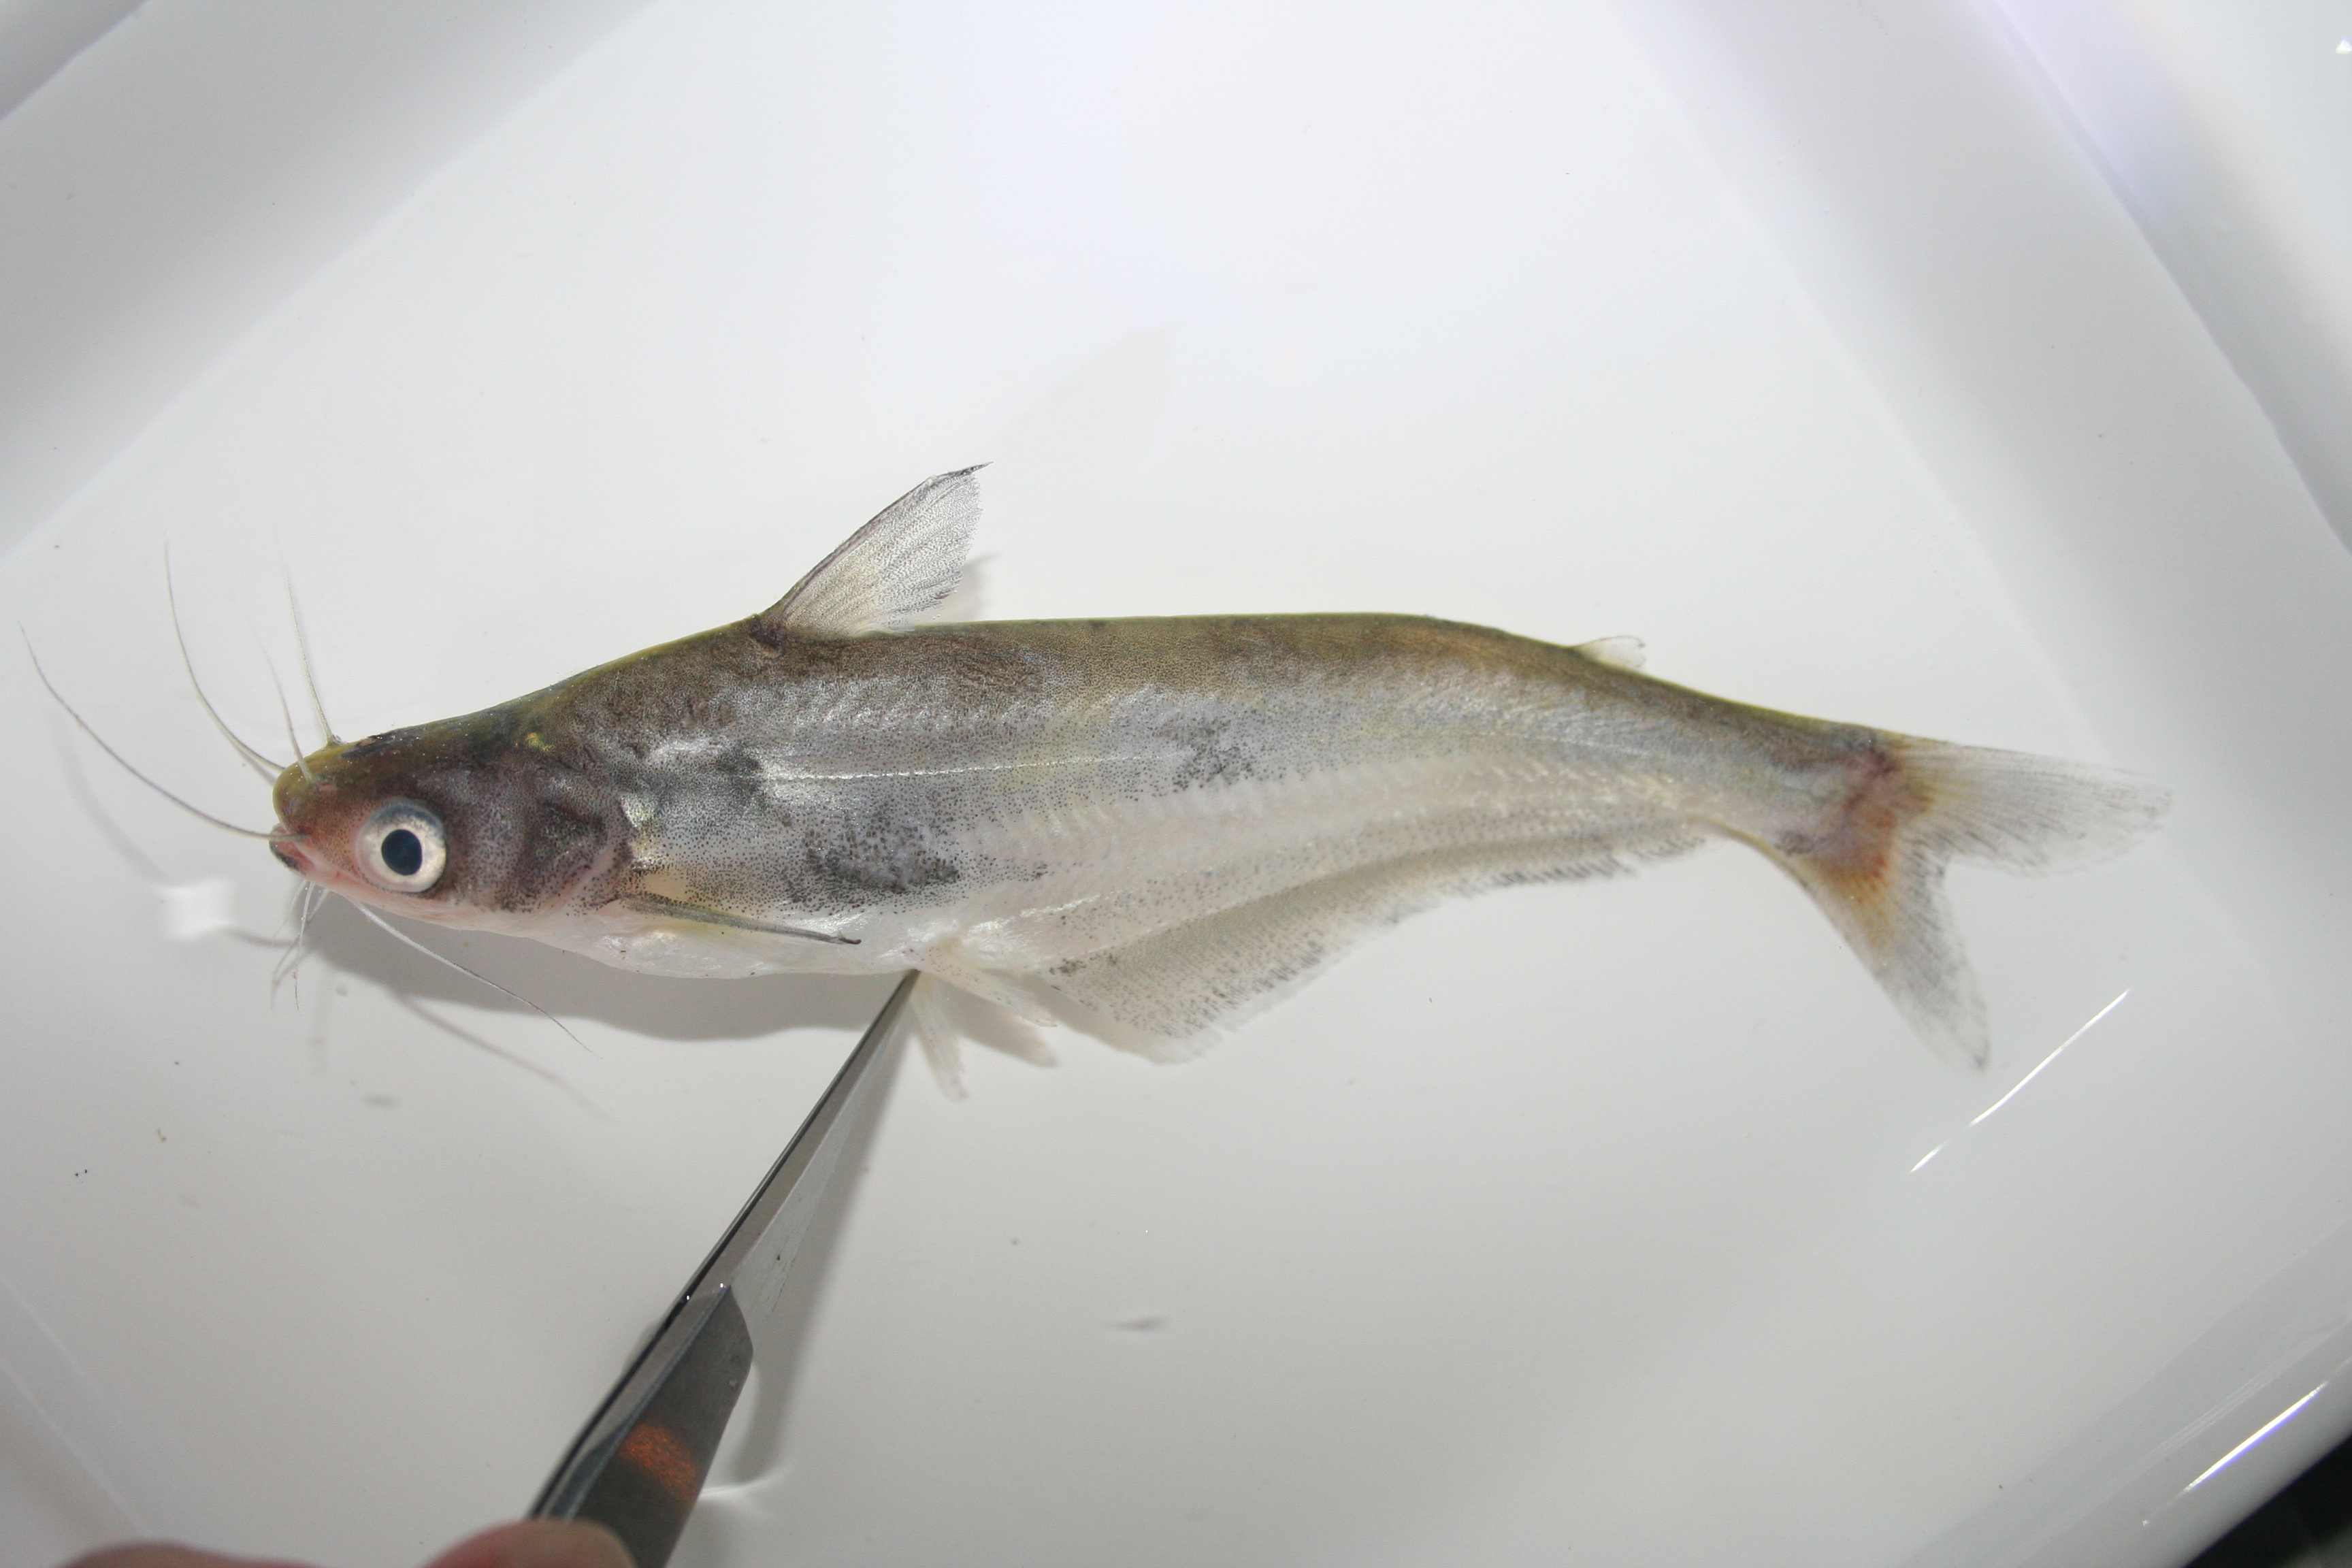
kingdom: Animalia
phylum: Chordata
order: Siluriformes
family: Schilbeidae
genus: Schilbe
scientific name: Schilbe bocagii
